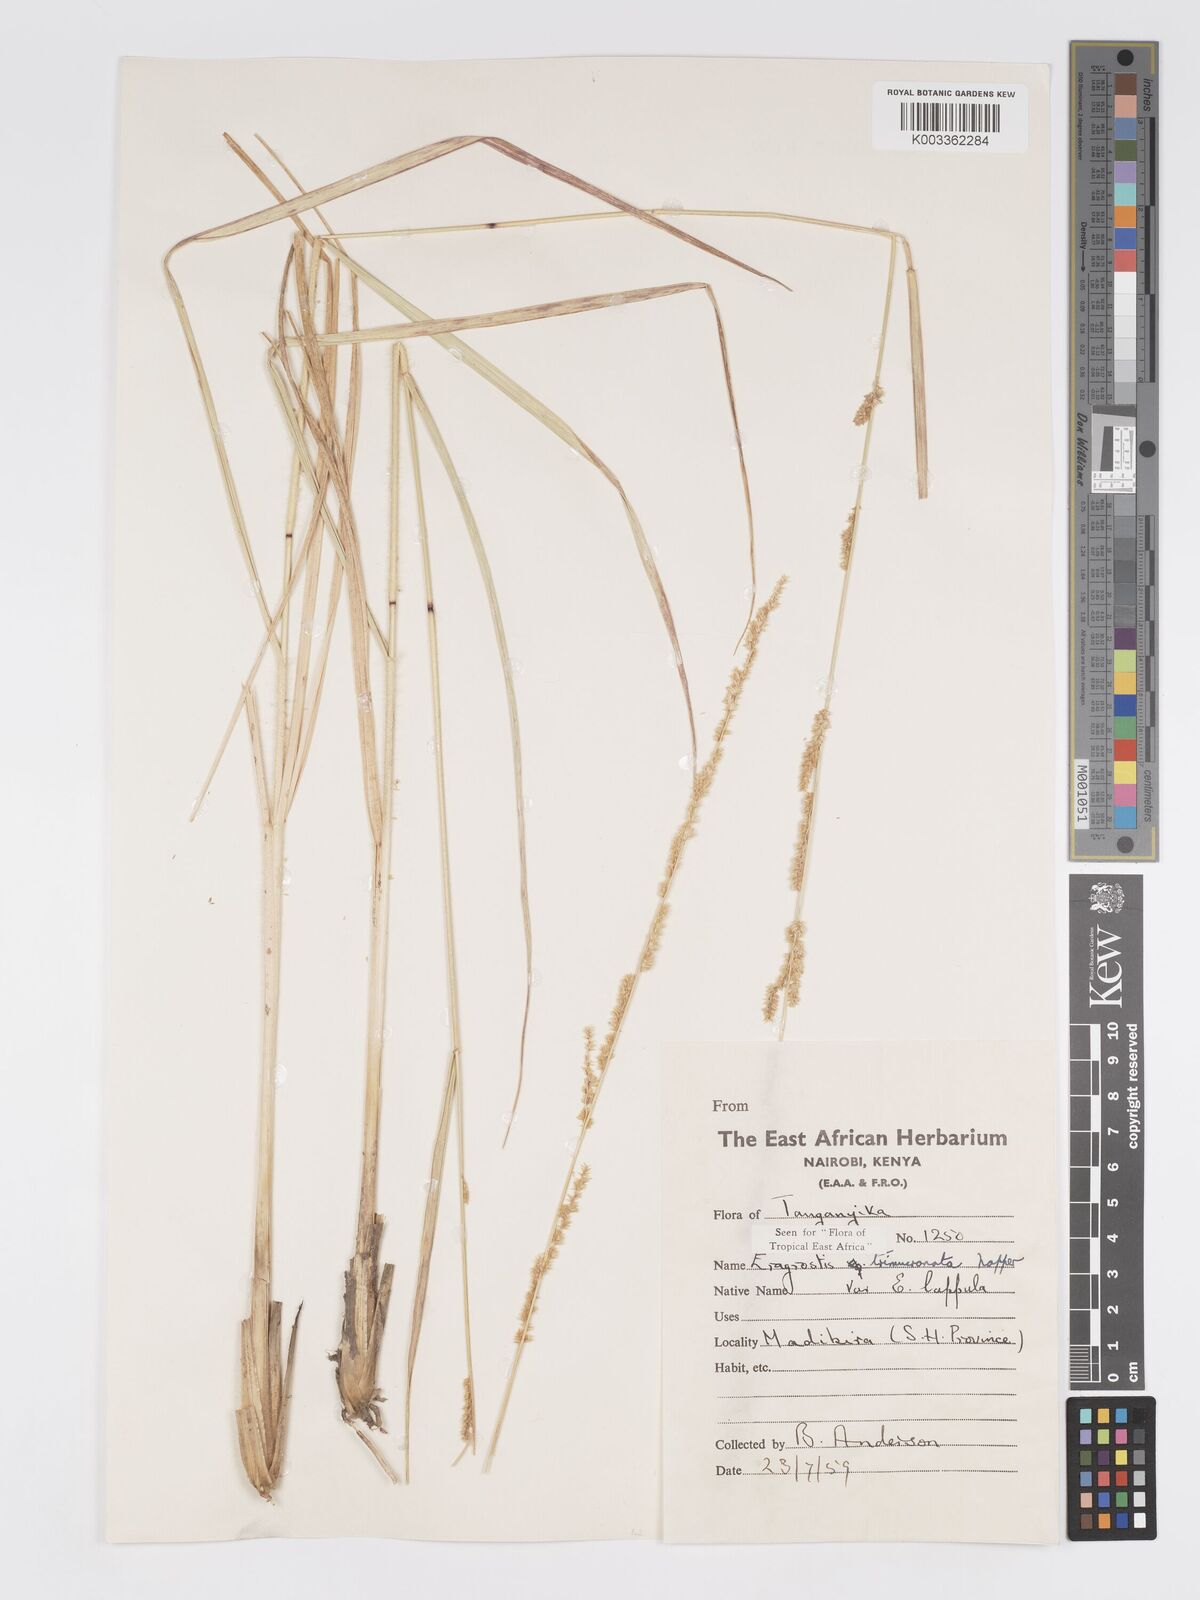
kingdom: Plantae
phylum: Tracheophyta
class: Liliopsida
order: Poales
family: Poaceae
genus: Eragrostis
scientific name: Eragrostis trimucronata
